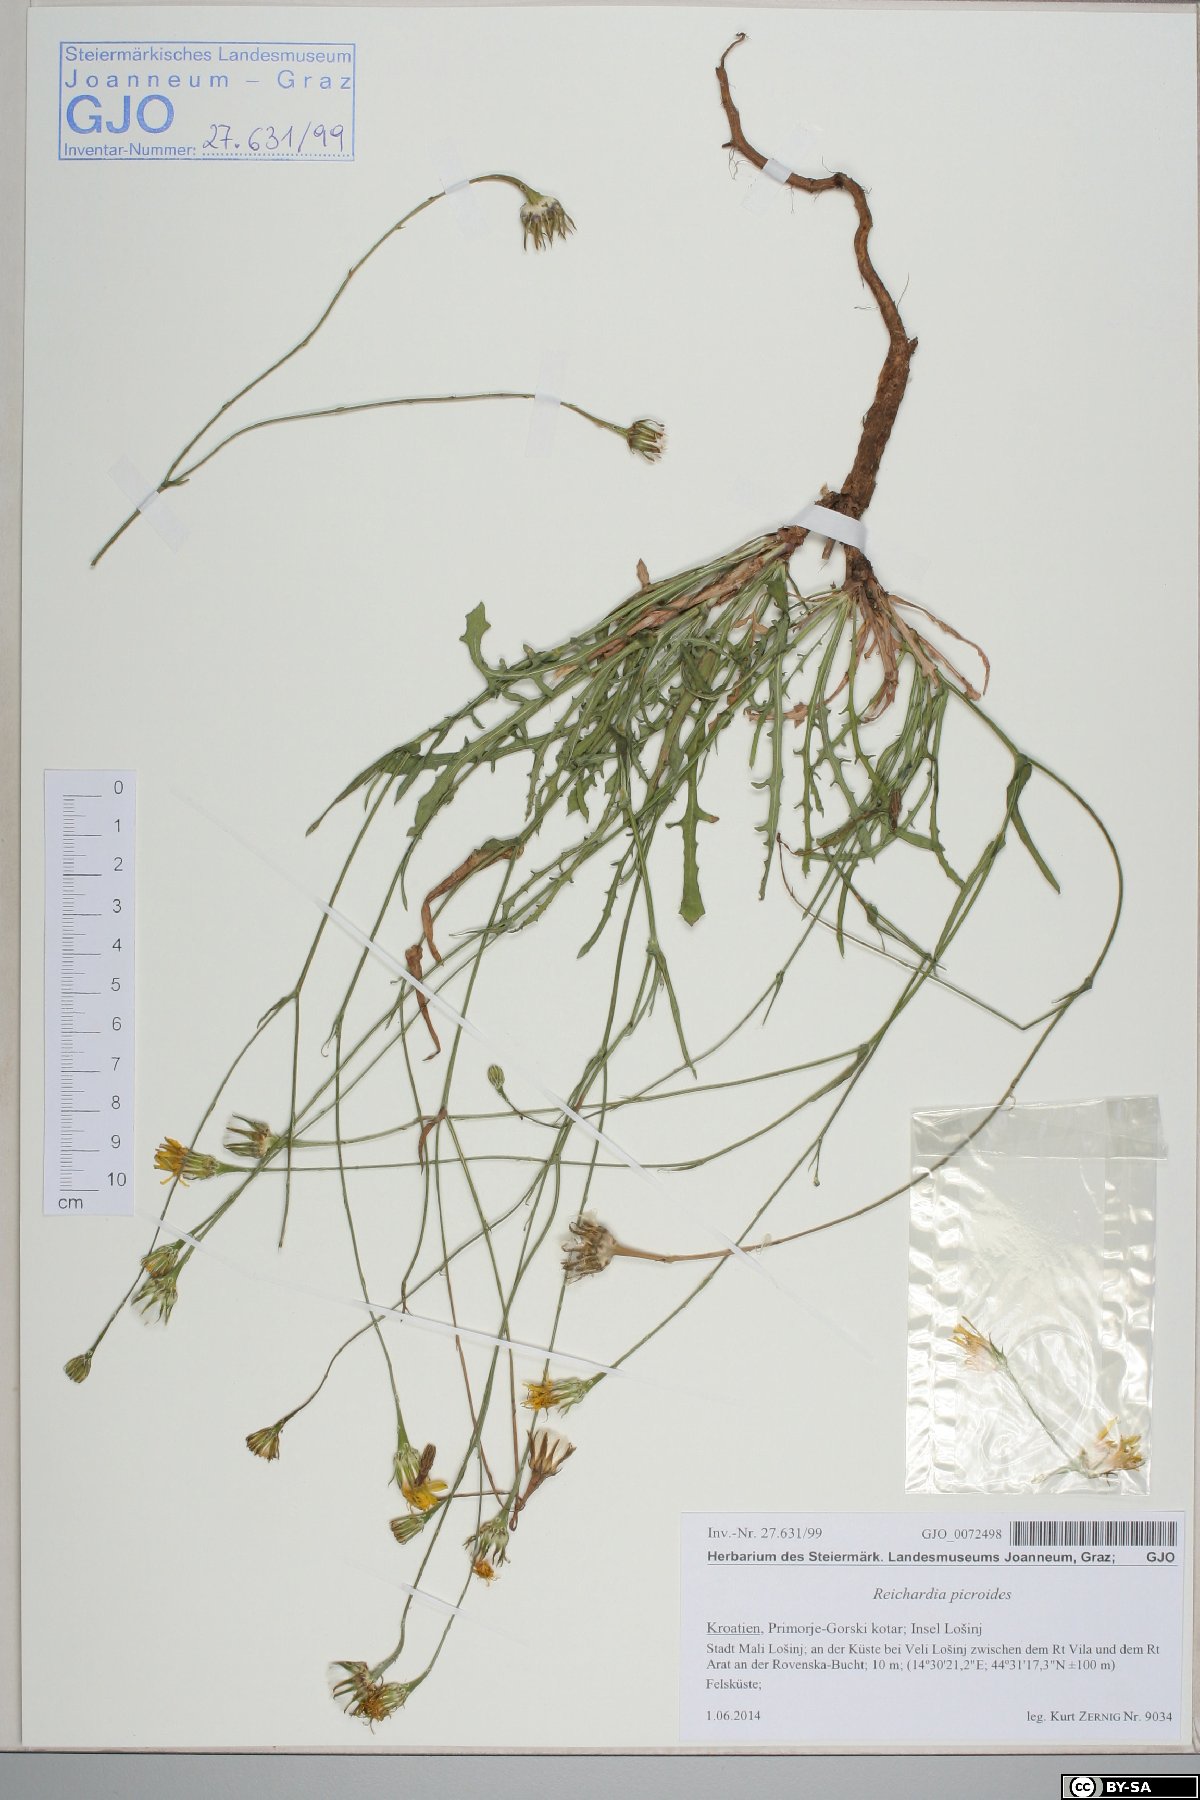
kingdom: Plantae
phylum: Tracheophyta
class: Magnoliopsida
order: Asterales
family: Asteraceae
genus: Reichardia
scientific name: Reichardia picroides
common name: Common brighteyes
